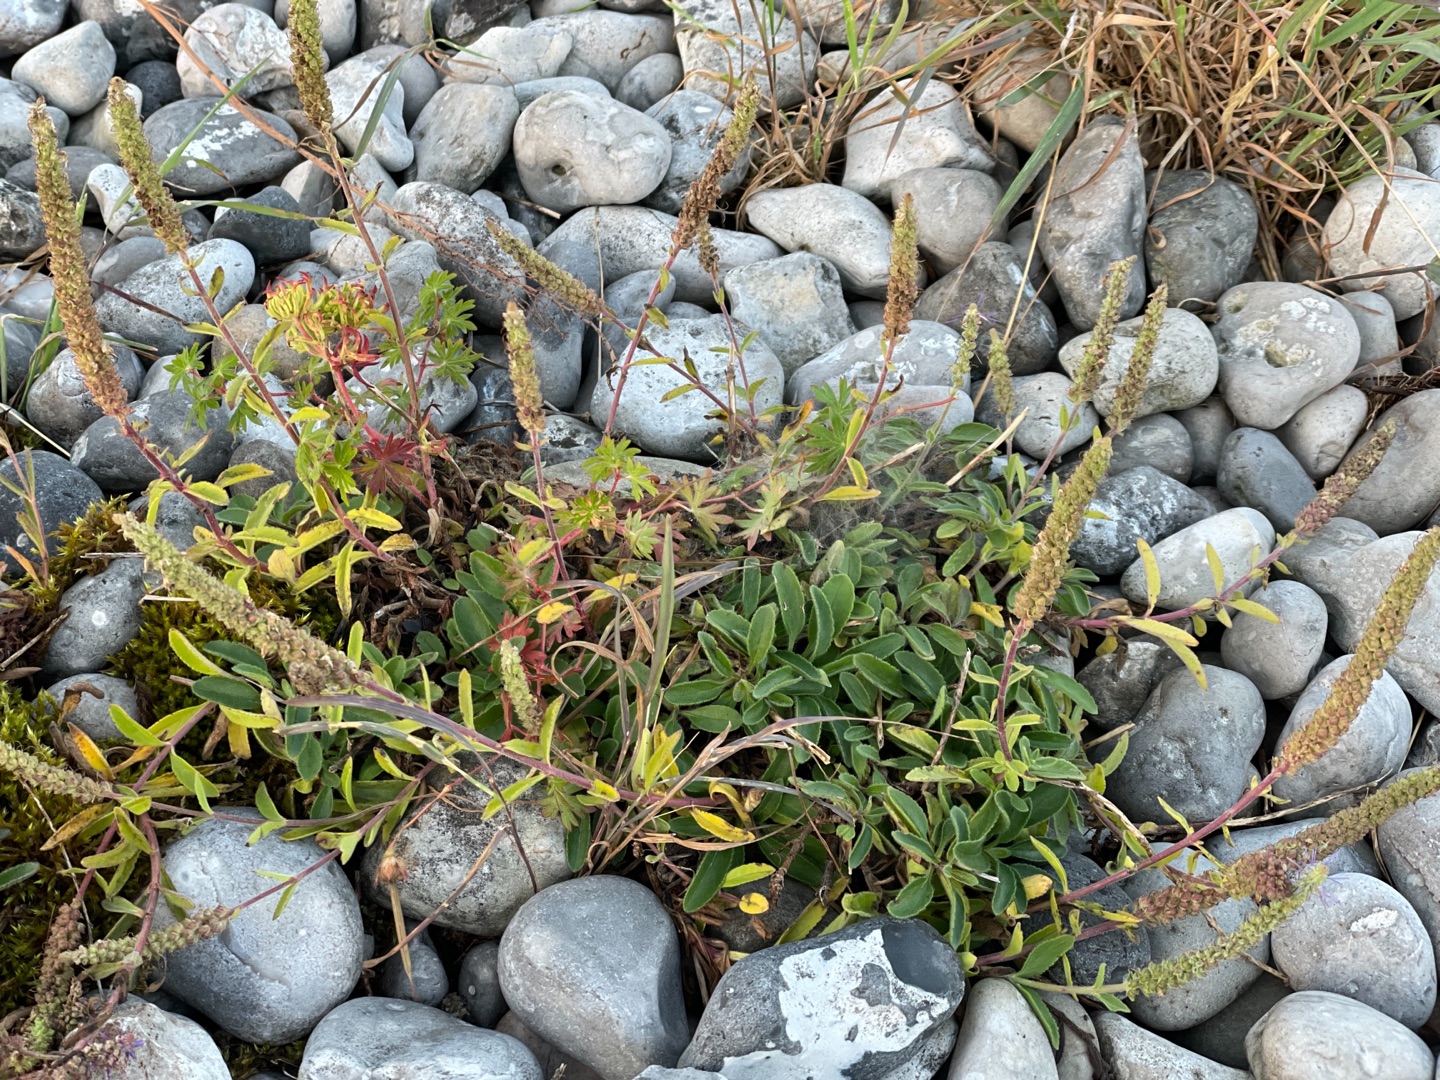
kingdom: Plantae
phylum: Tracheophyta
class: Magnoliopsida
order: Lamiales
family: Plantaginaceae
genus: Veronica
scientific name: Veronica spicata
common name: Aks-ærenpris
